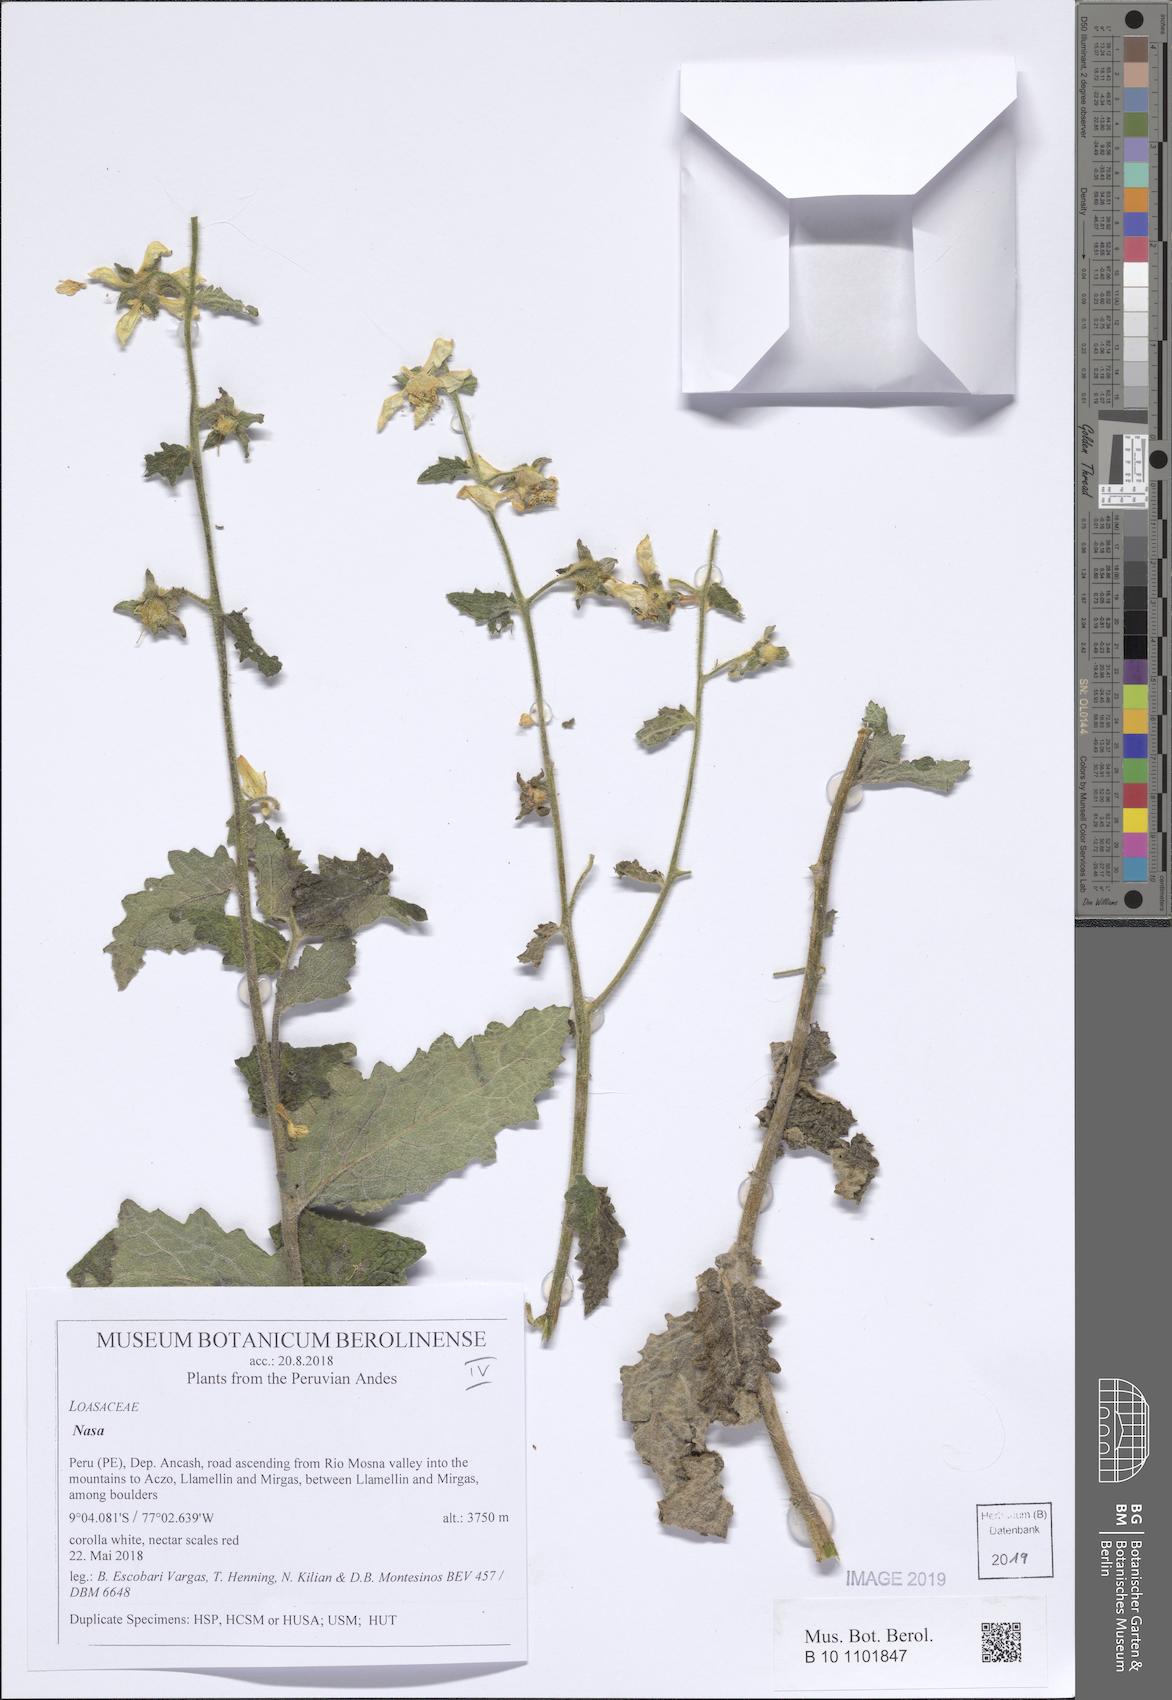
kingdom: Plantae
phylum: Tracheophyta
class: Magnoliopsida
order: Cornales
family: Loasaceae
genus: Nasa
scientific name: Nasa carunculata
